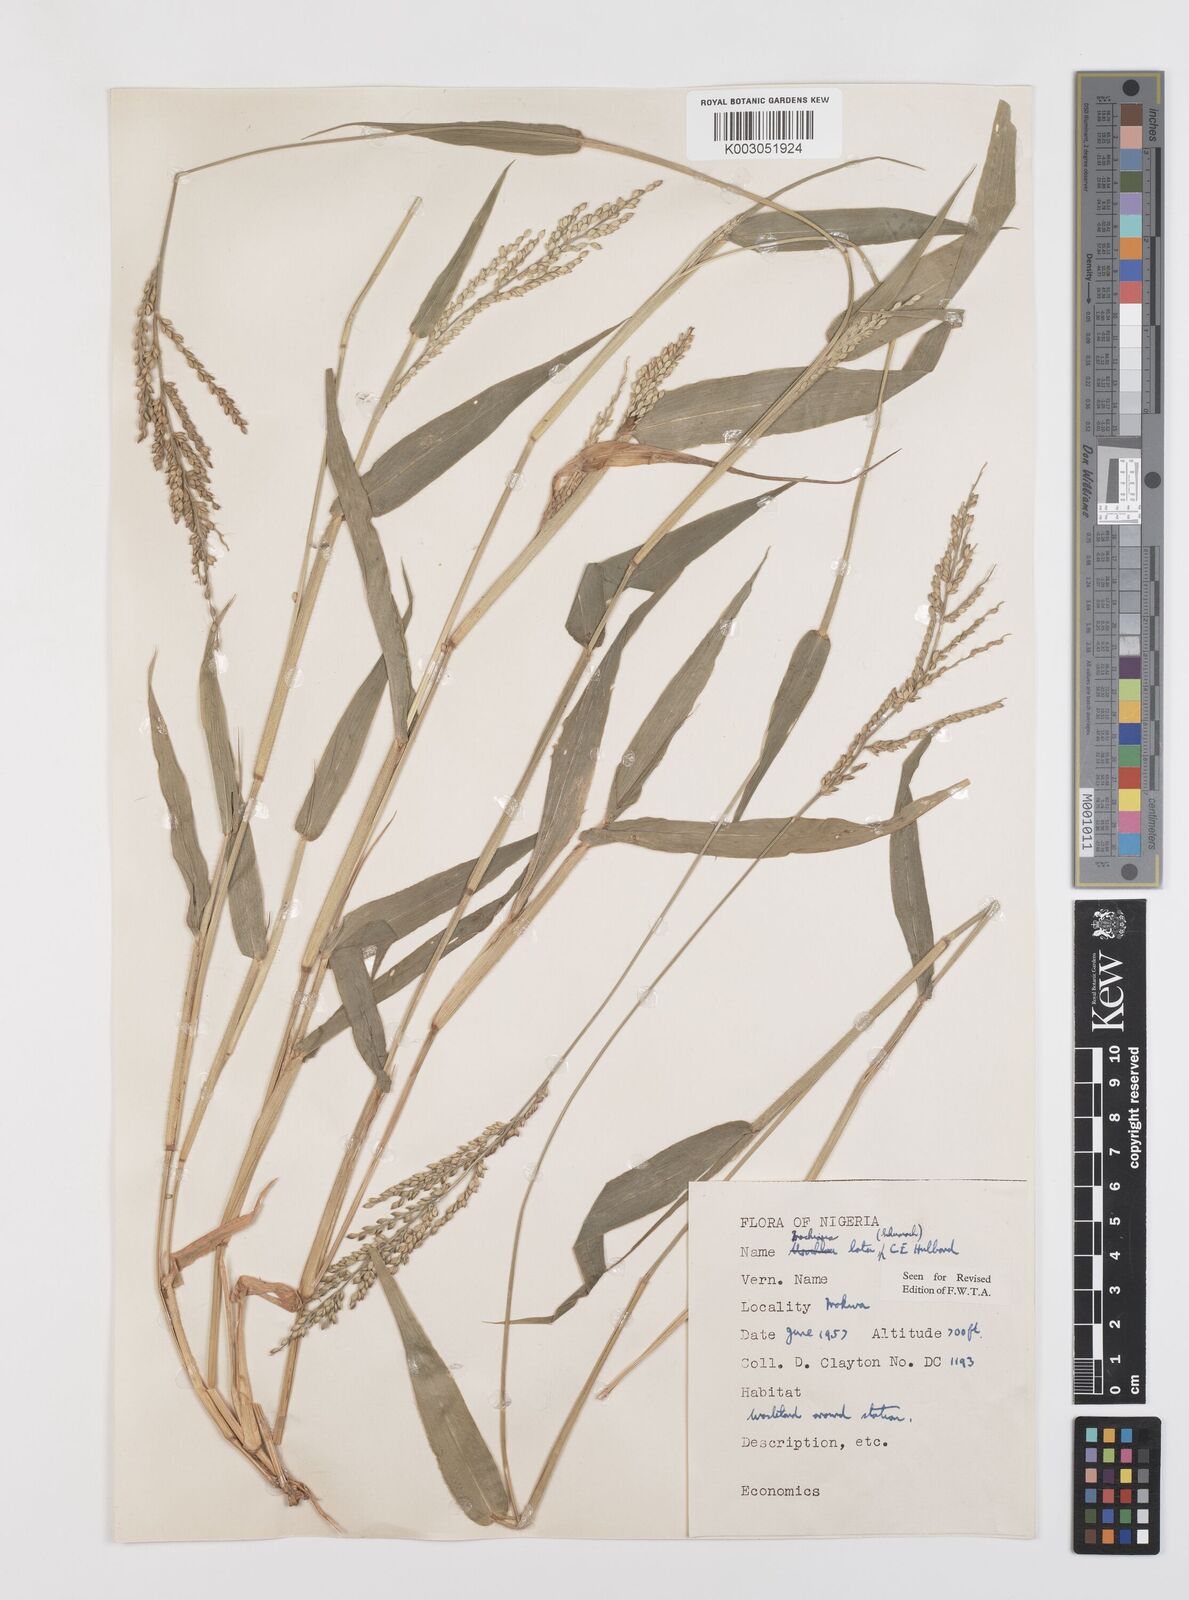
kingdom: Plantae
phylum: Tracheophyta
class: Liliopsida
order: Poales
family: Poaceae
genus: Urochloa
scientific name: Urochloa lata
